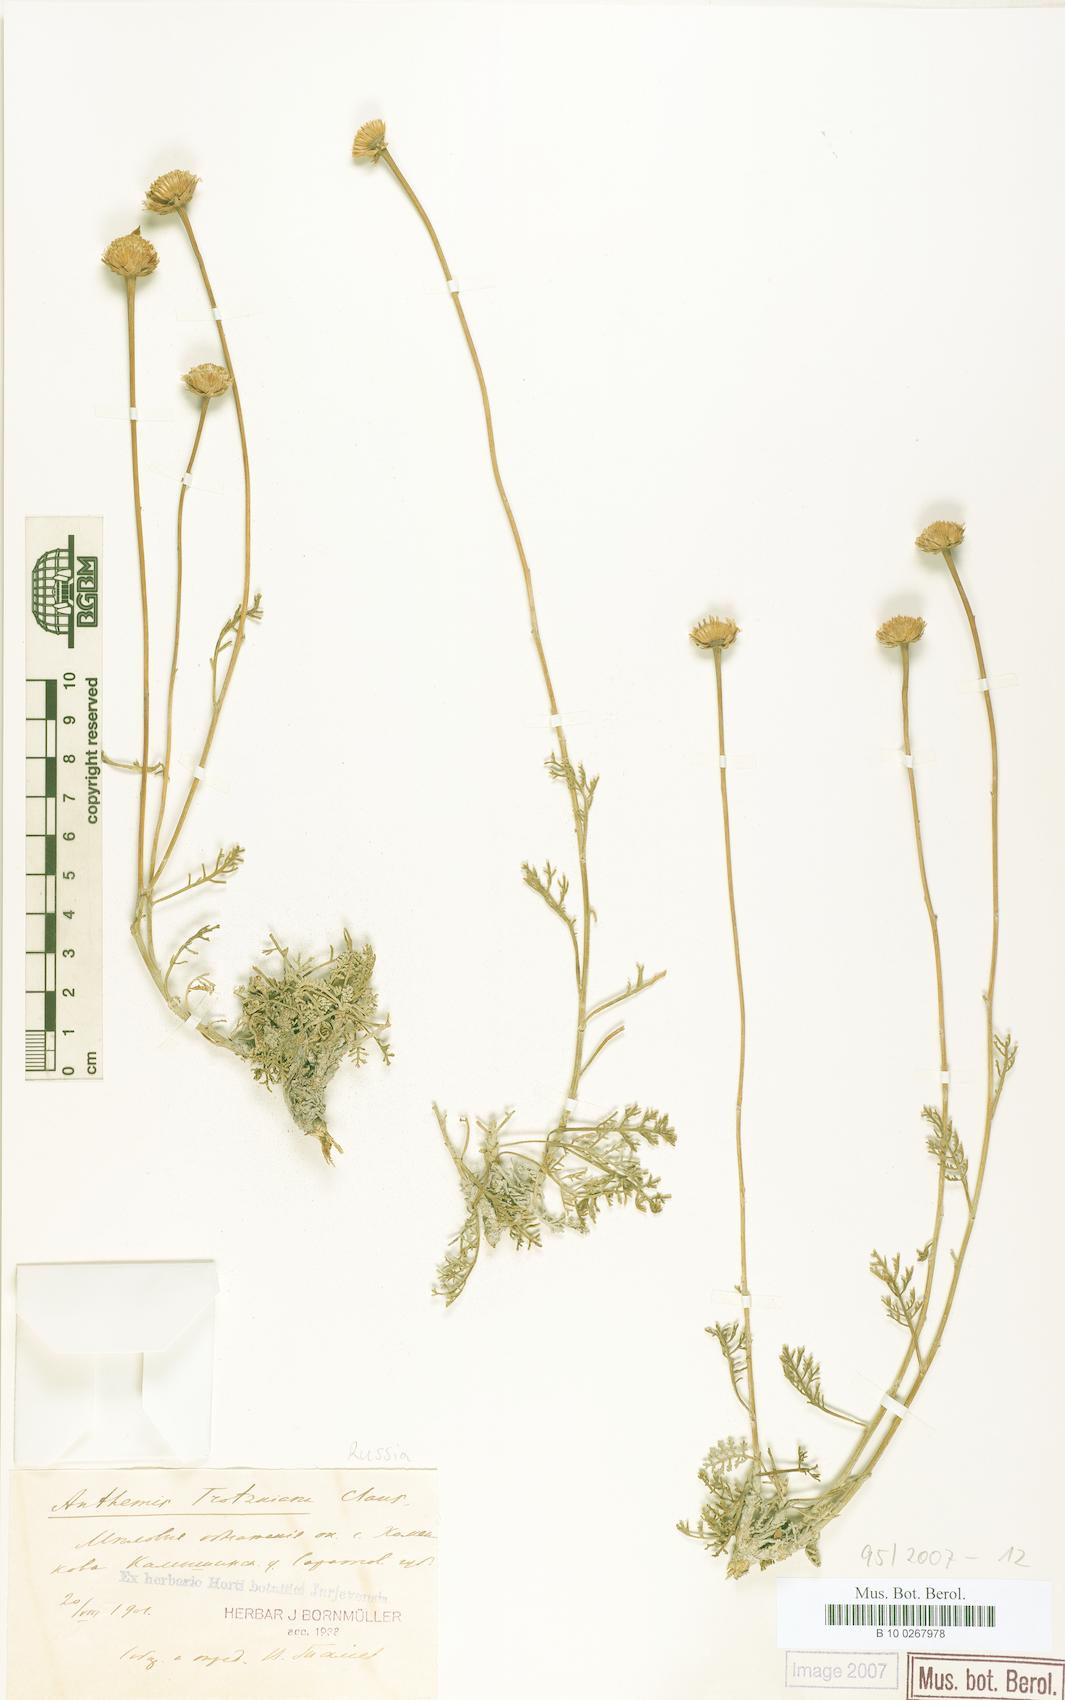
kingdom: Plantae
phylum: Tracheophyta
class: Magnoliopsida
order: Asterales
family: Asteraceae
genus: Anthemis
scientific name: Anthemis trotzkiana
